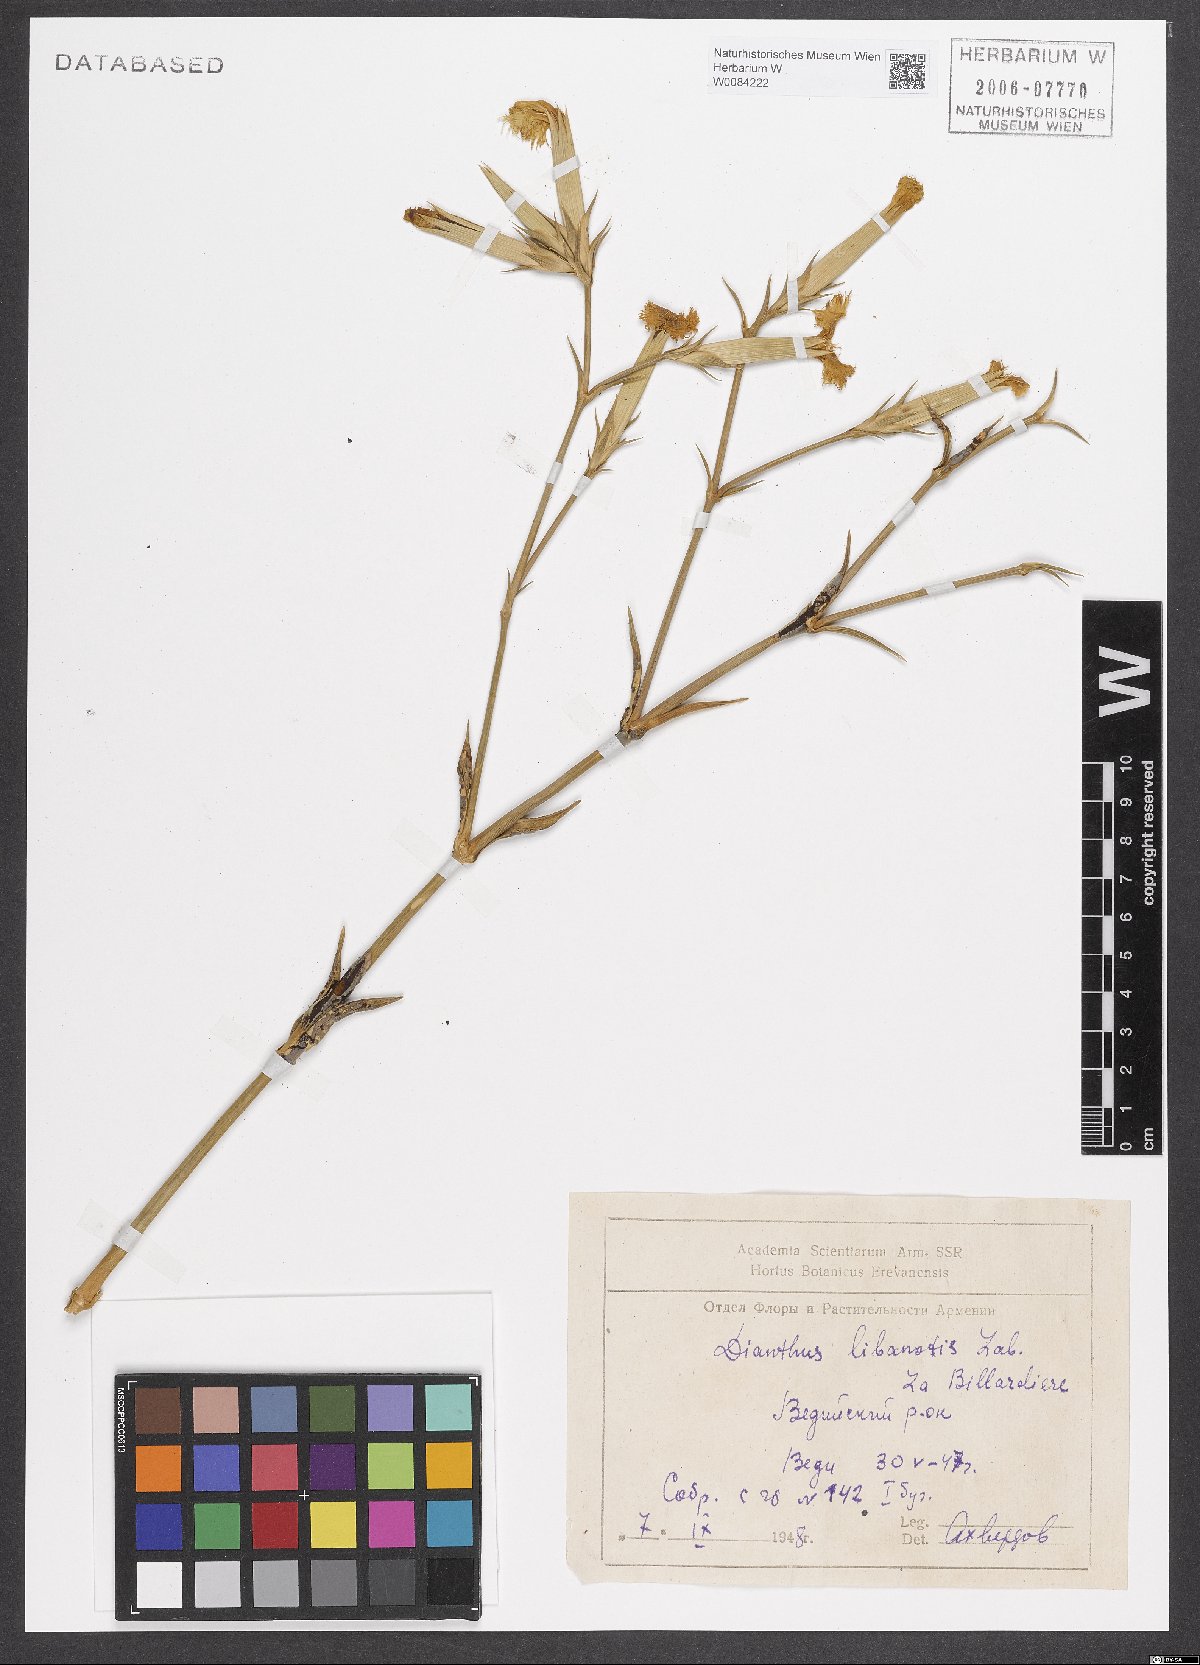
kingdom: Plantae
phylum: Tracheophyta
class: Magnoliopsida
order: Caryophyllales
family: Caryophyllaceae
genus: Dianthus
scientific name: Dianthus libanotis
